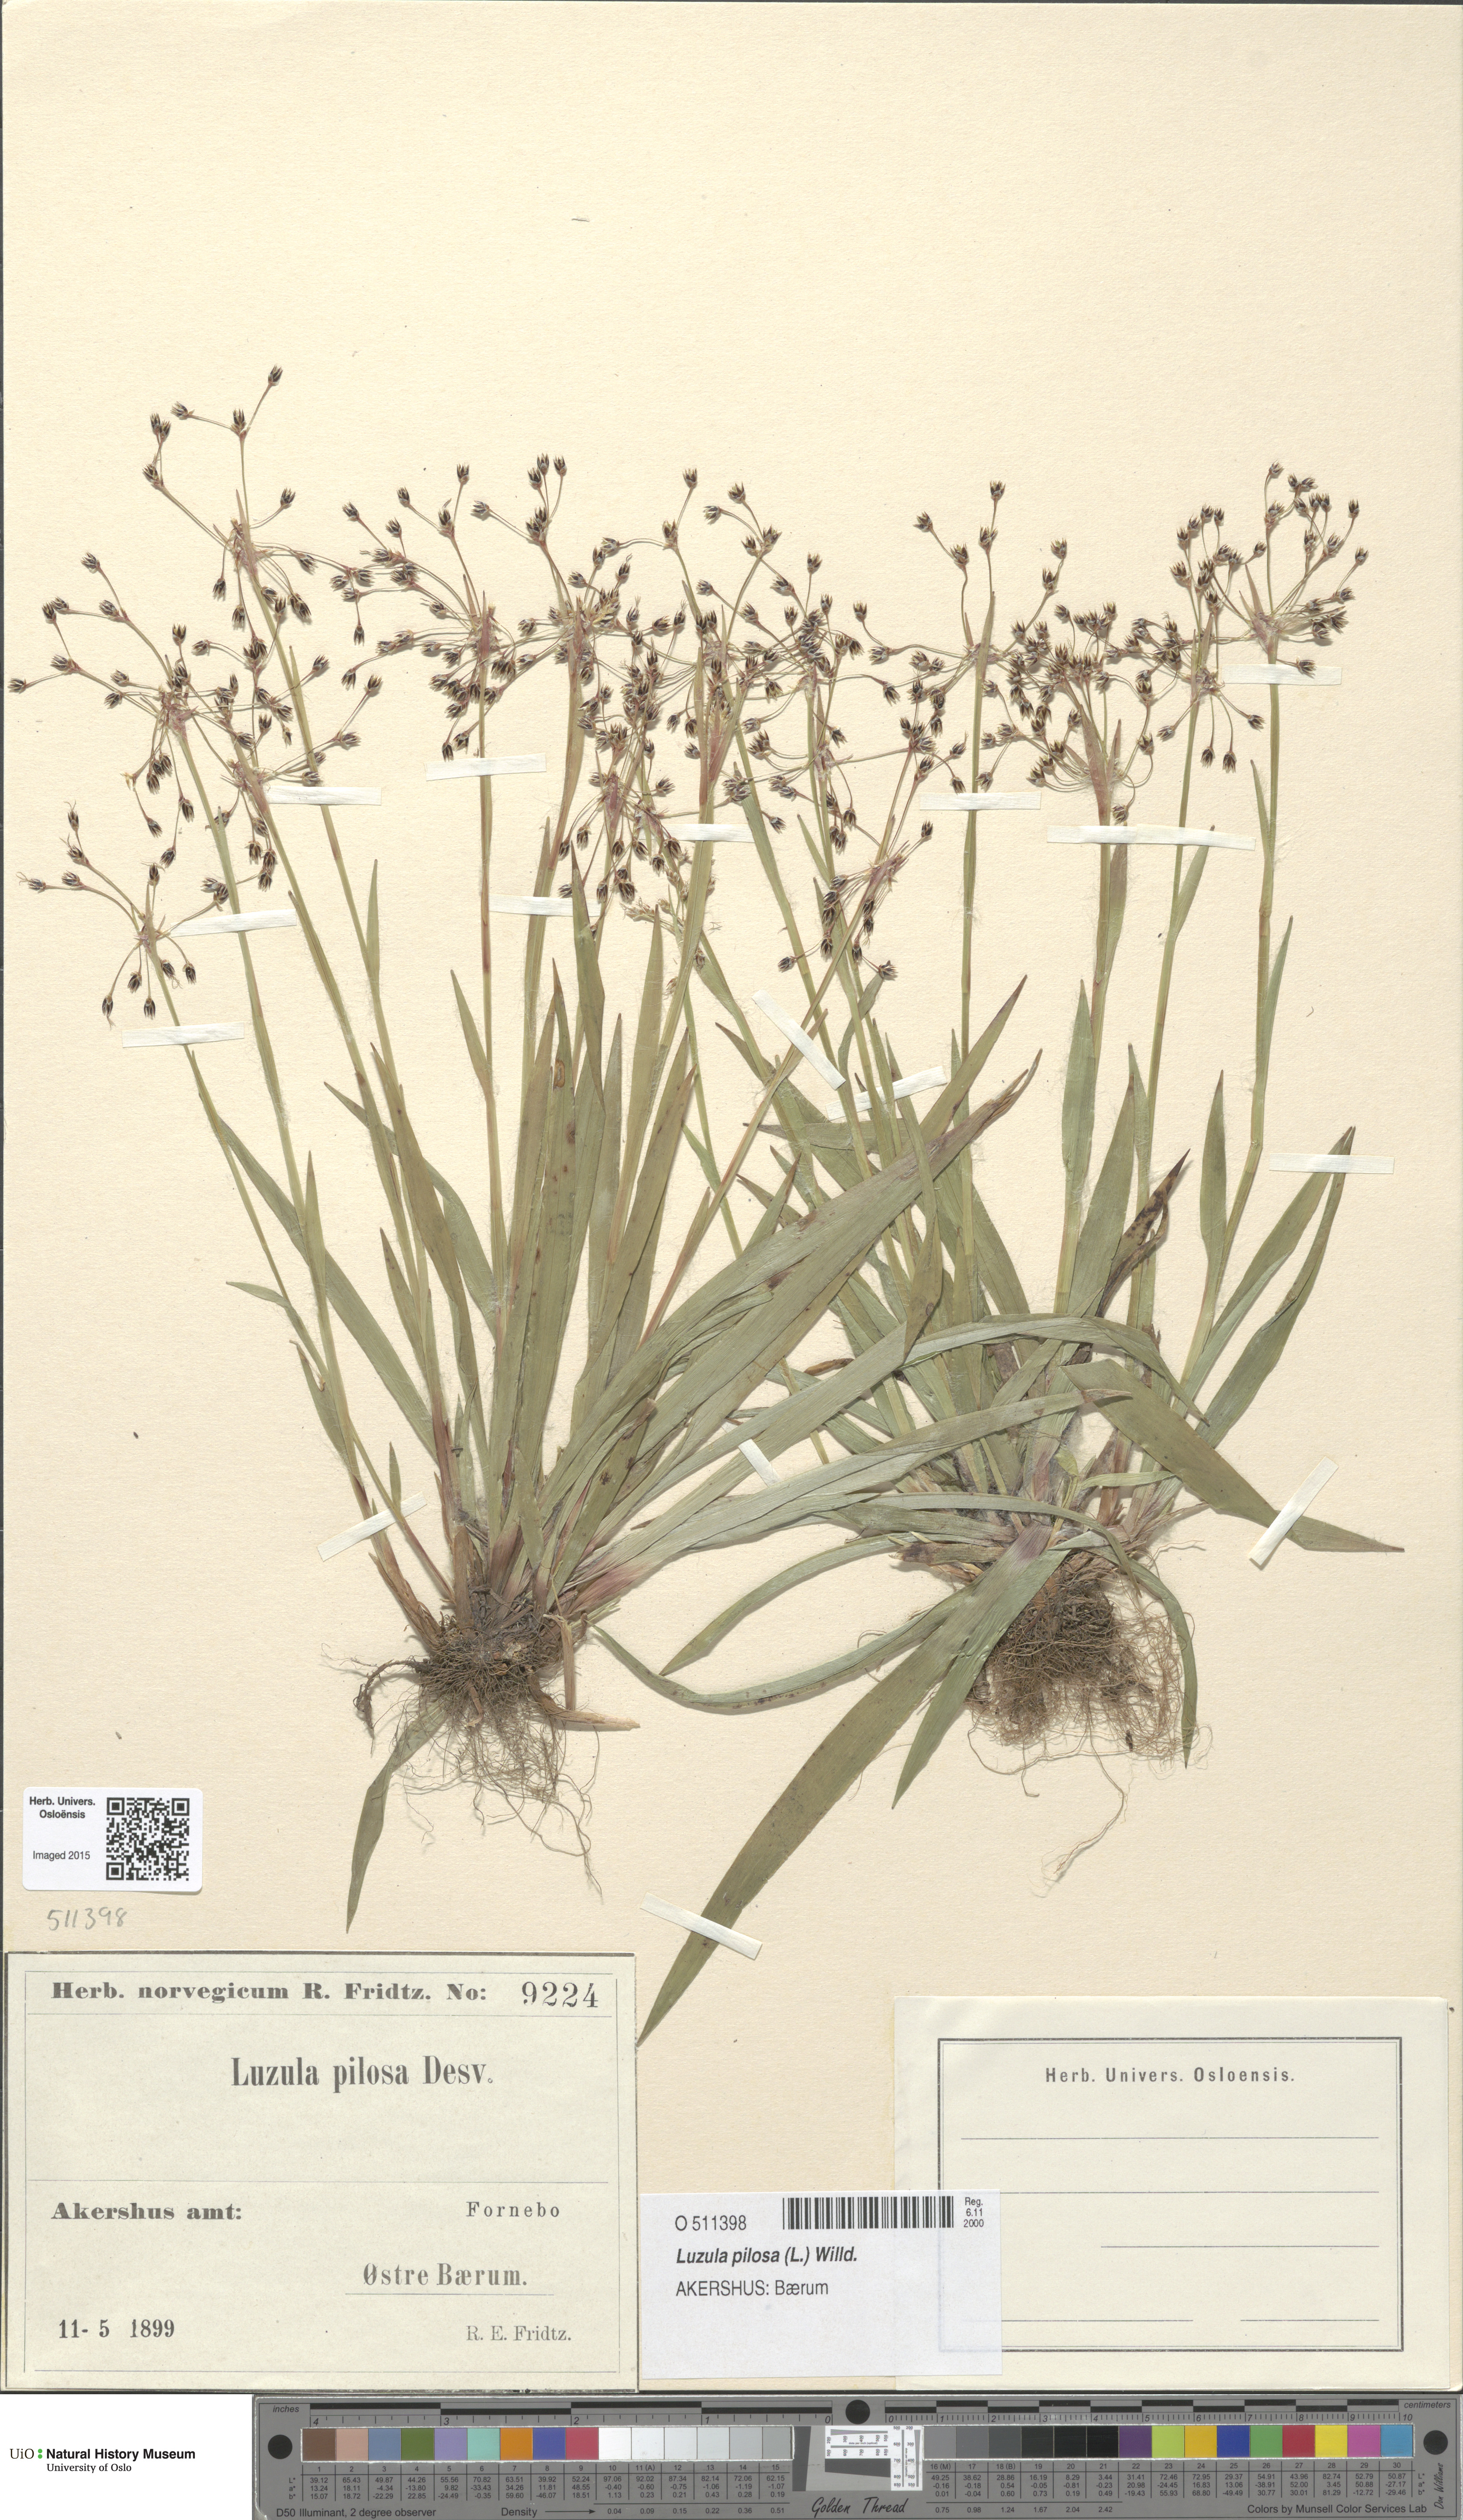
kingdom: Plantae
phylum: Tracheophyta
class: Liliopsida
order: Poales
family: Juncaceae
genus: Luzula
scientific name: Luzula pilosa
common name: Hairy wood-rush
